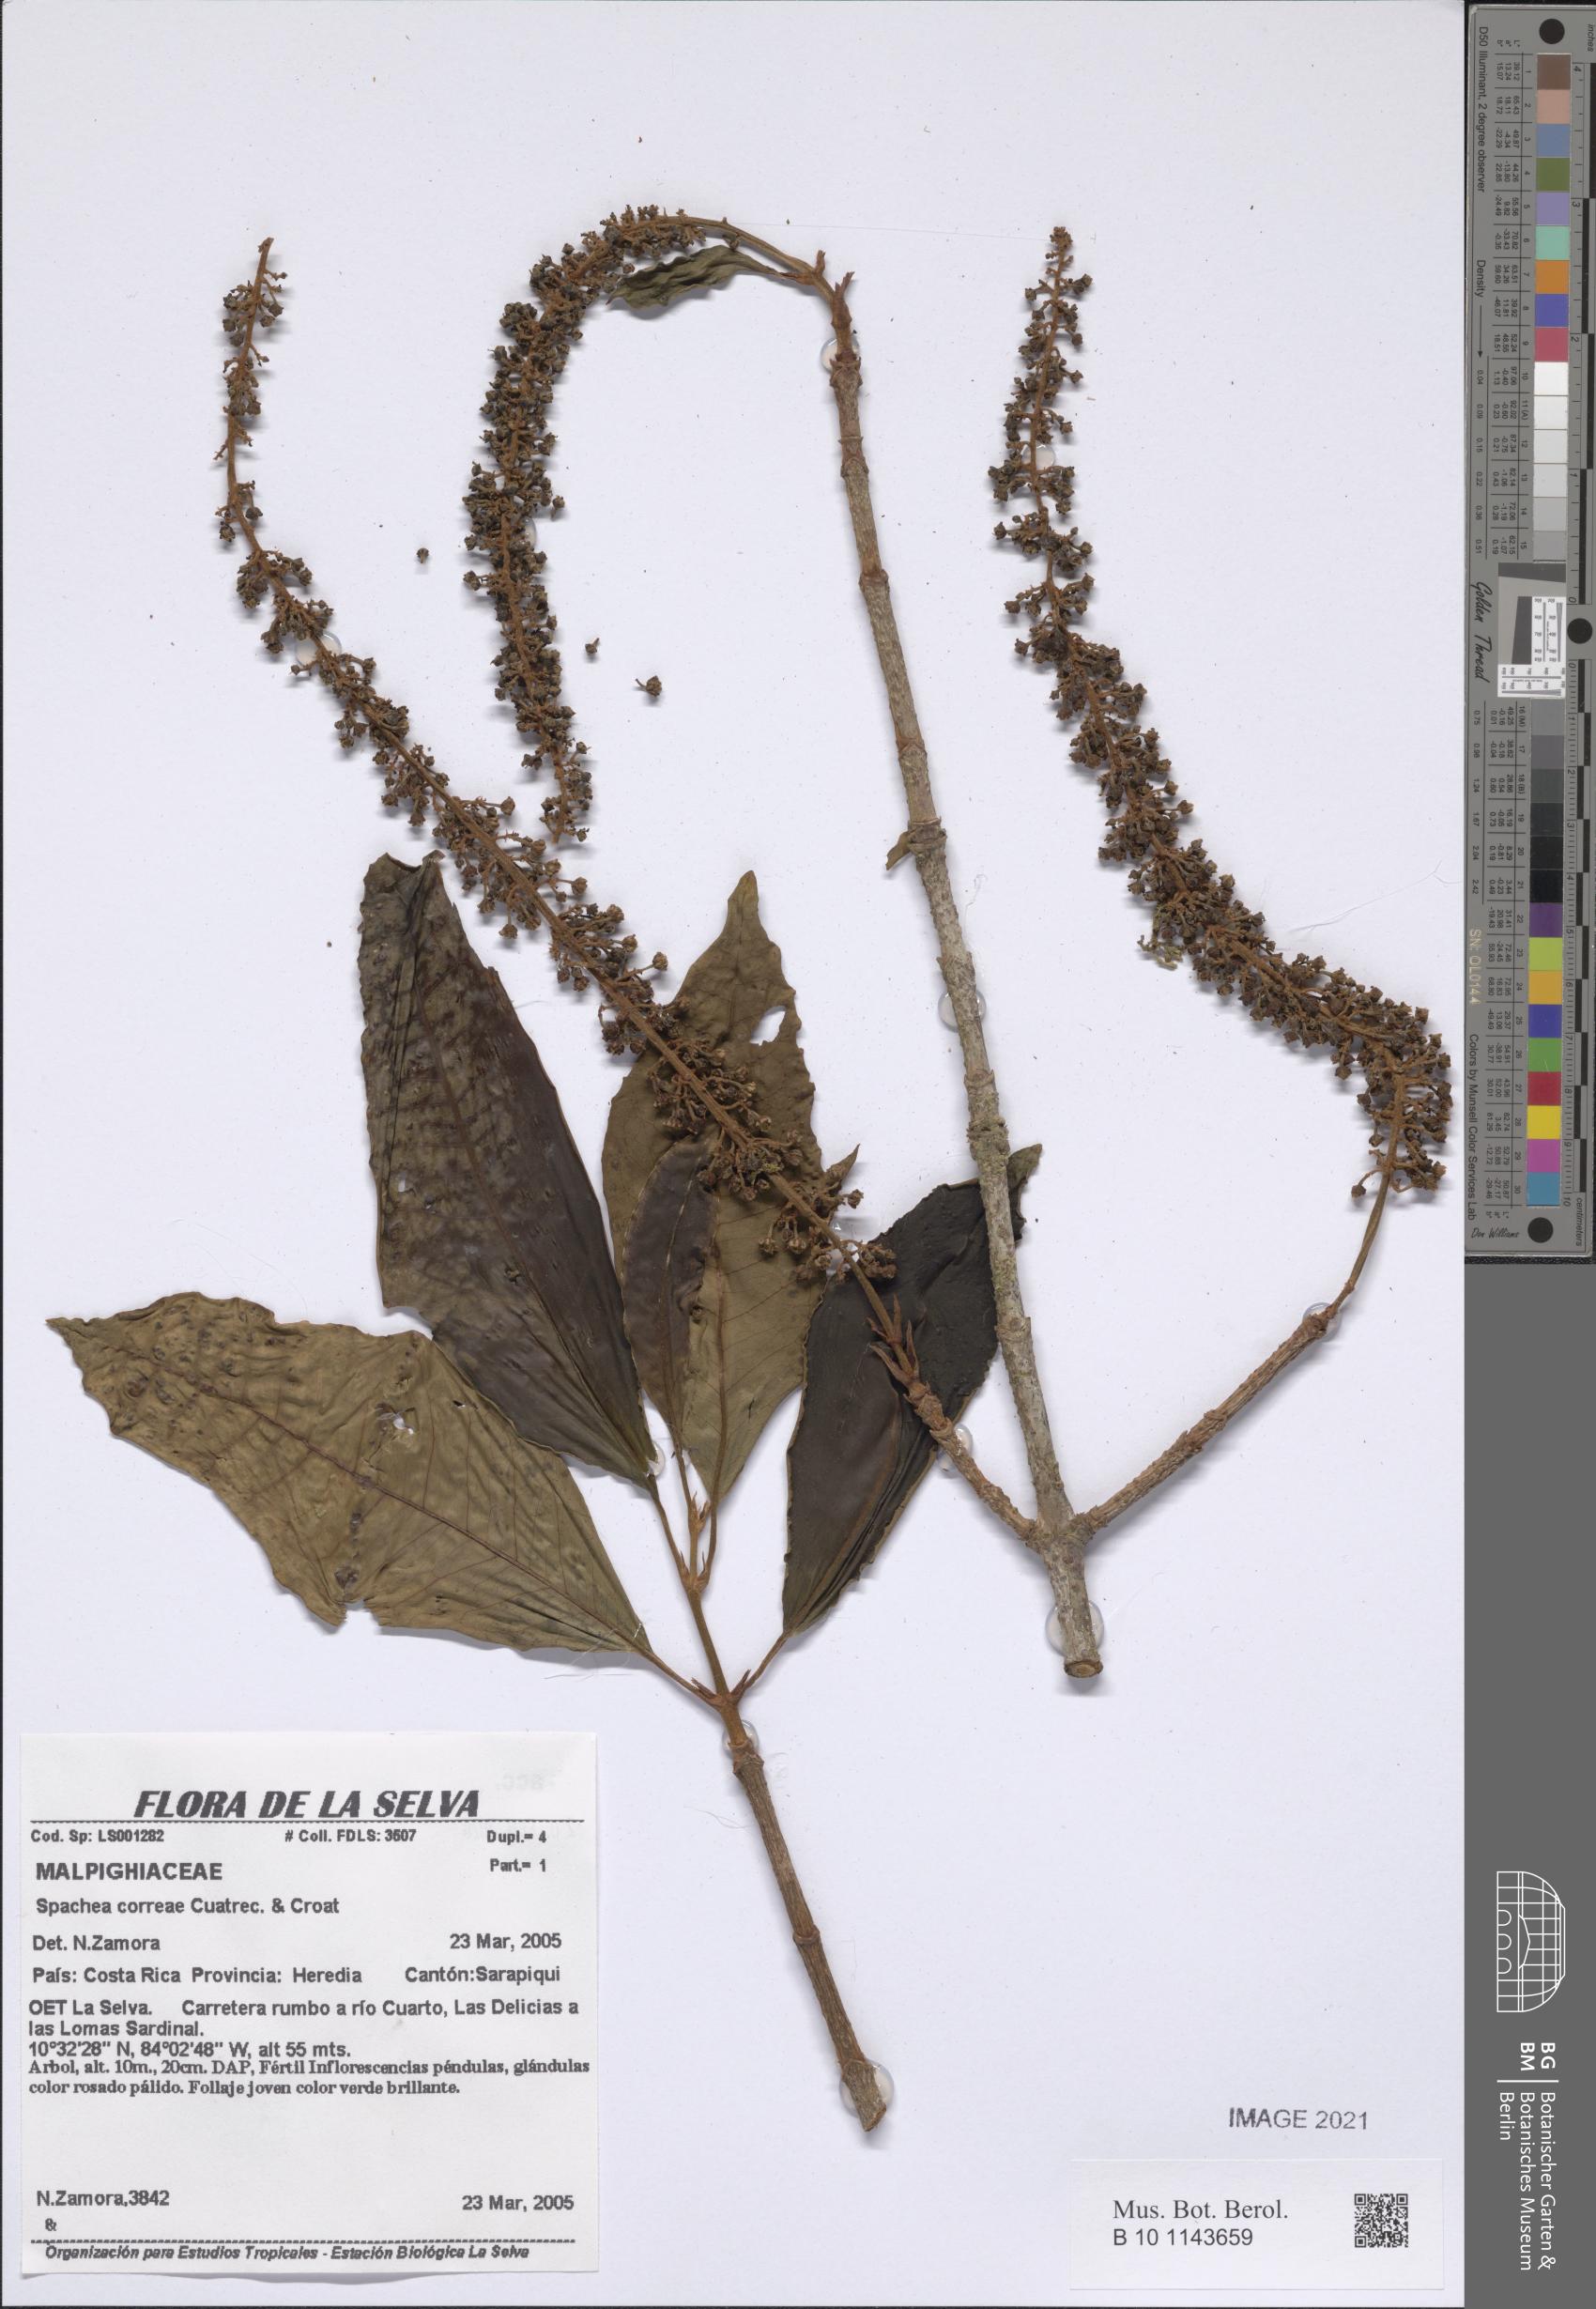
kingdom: Plantae
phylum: Tracheophyta
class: Magnoliopsida
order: Malpighiales
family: Malpighiaceae
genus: Spachea
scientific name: Spachea correae
